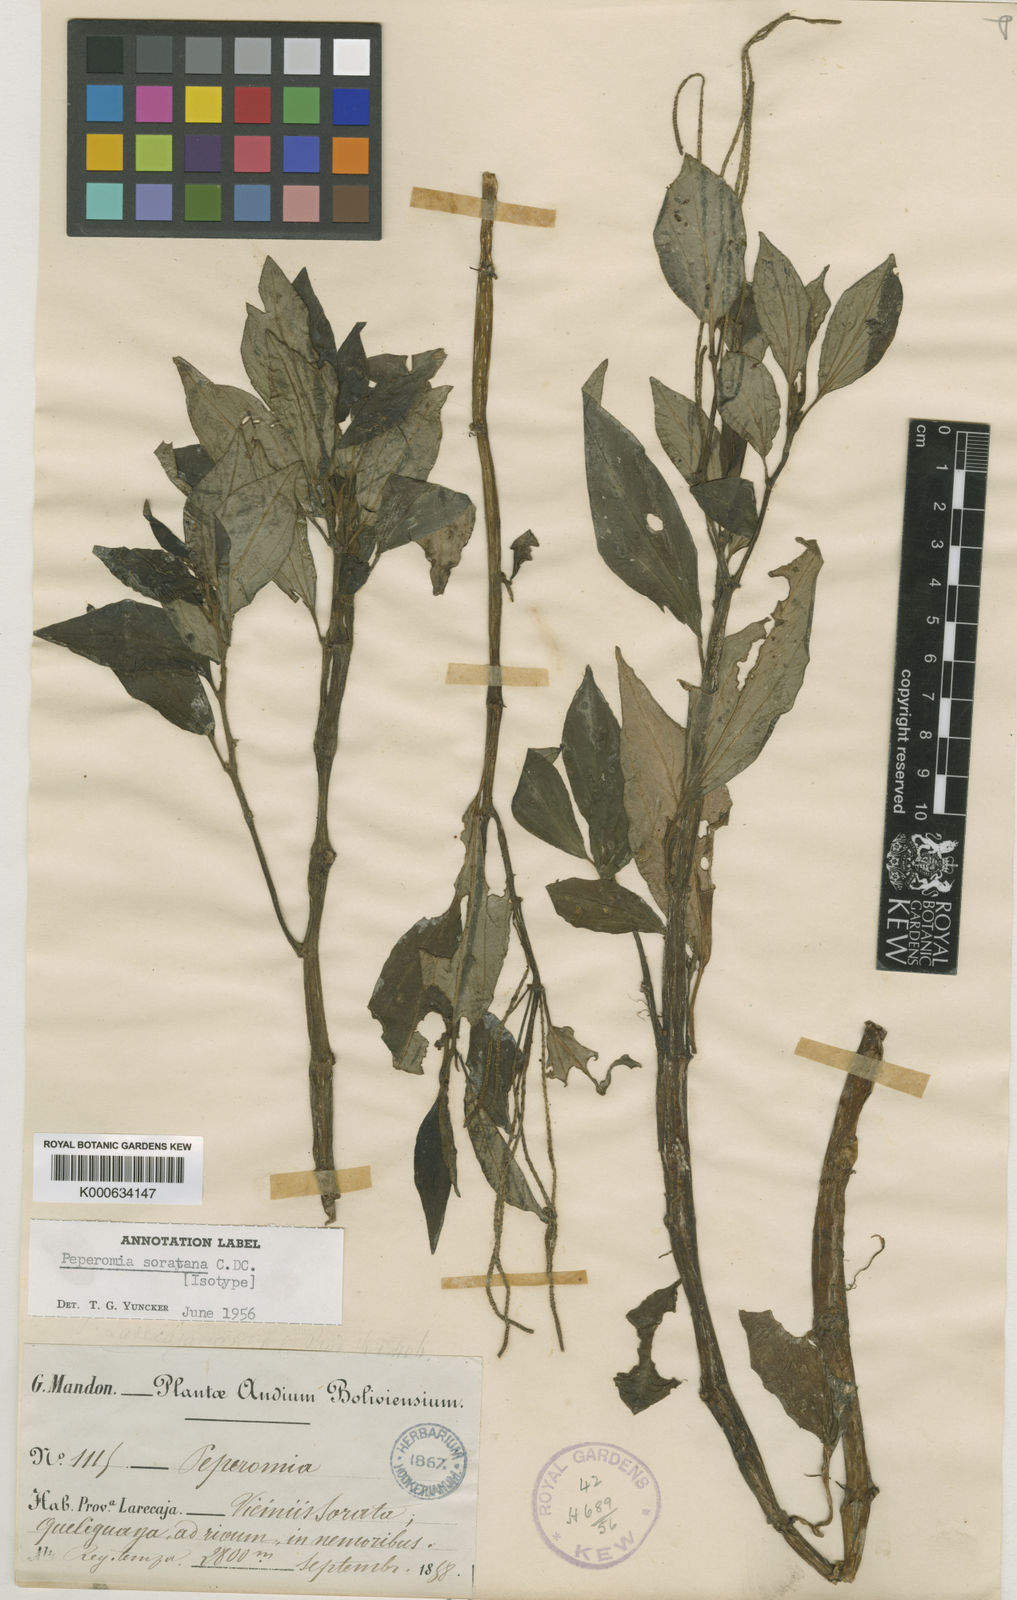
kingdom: Plantae
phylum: Tracheophyta
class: Magnoliopsida
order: Piperales
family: Piperaceae
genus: Peperomia
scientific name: Peperomia soratana
